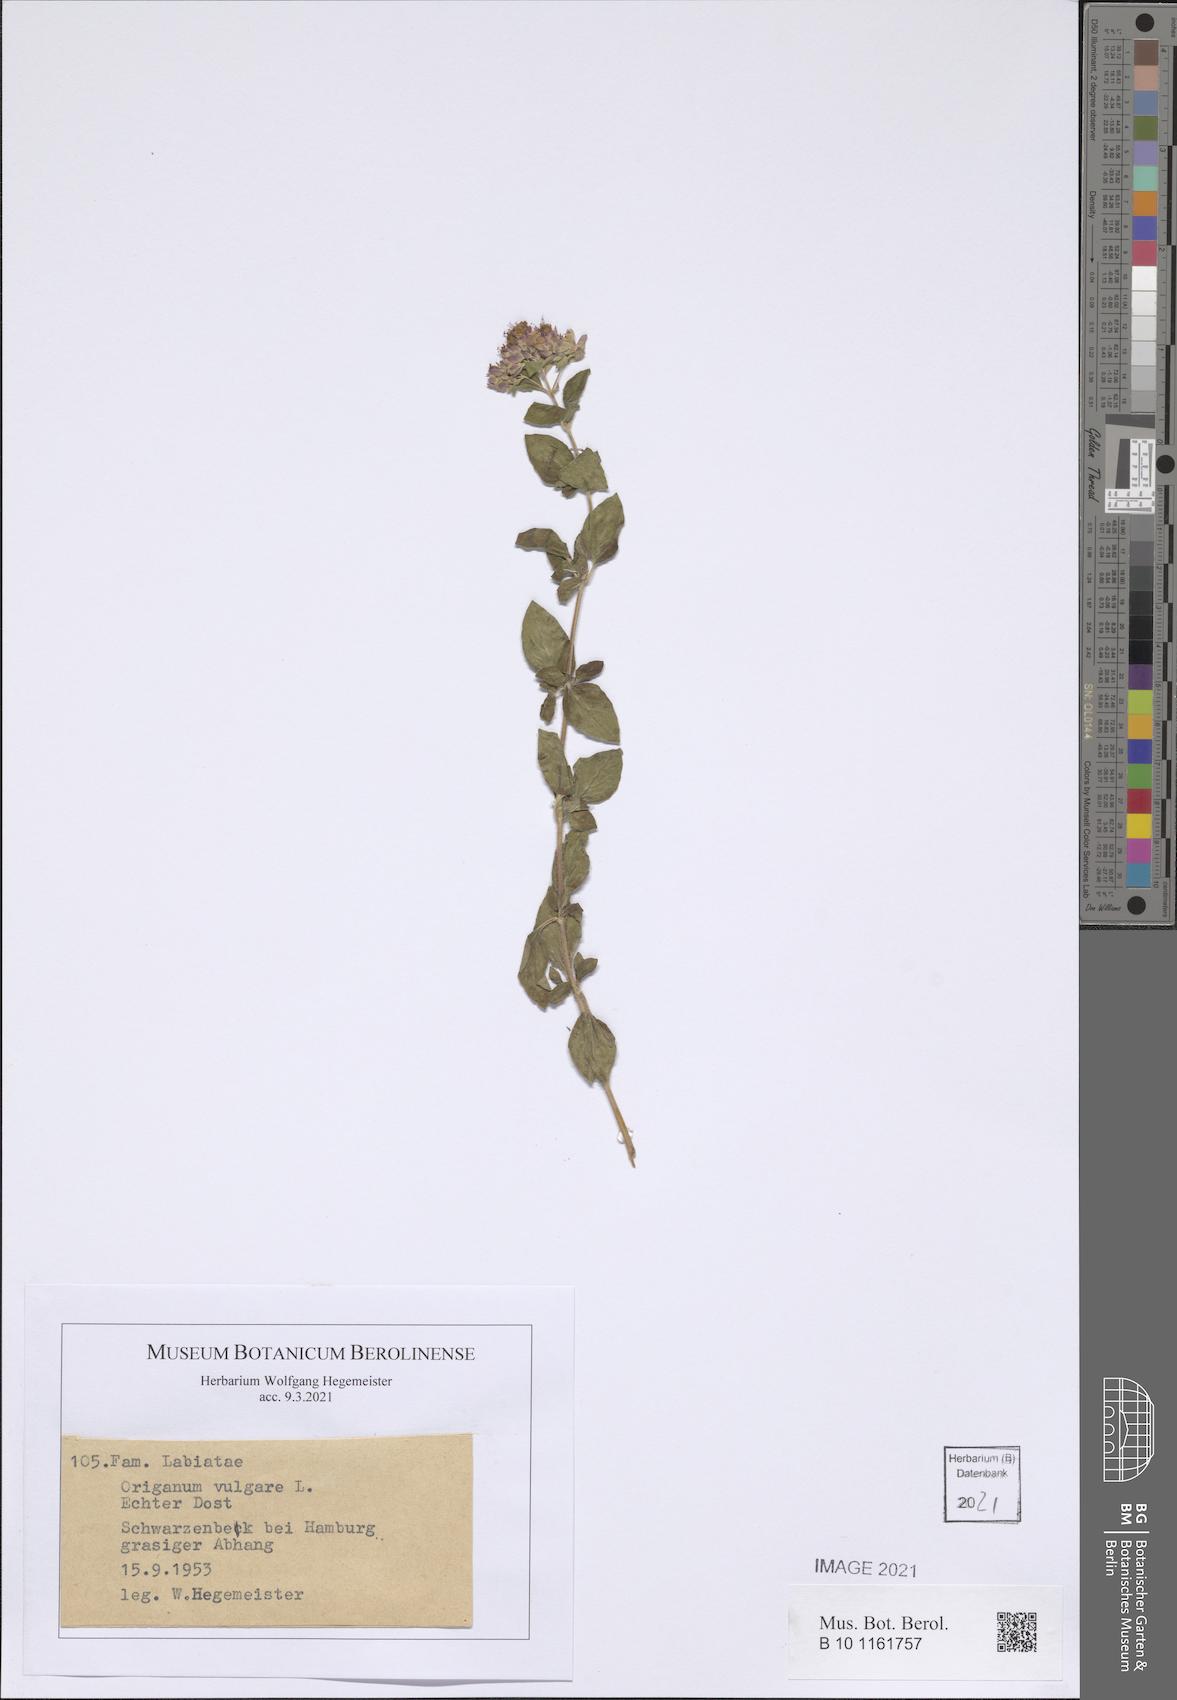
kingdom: Plantae
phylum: Tracheophyta
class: Magnoliopsida
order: Lamiales
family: Lamiaceae
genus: Origanum
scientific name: Origanum vulgare
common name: Wild marjoram
